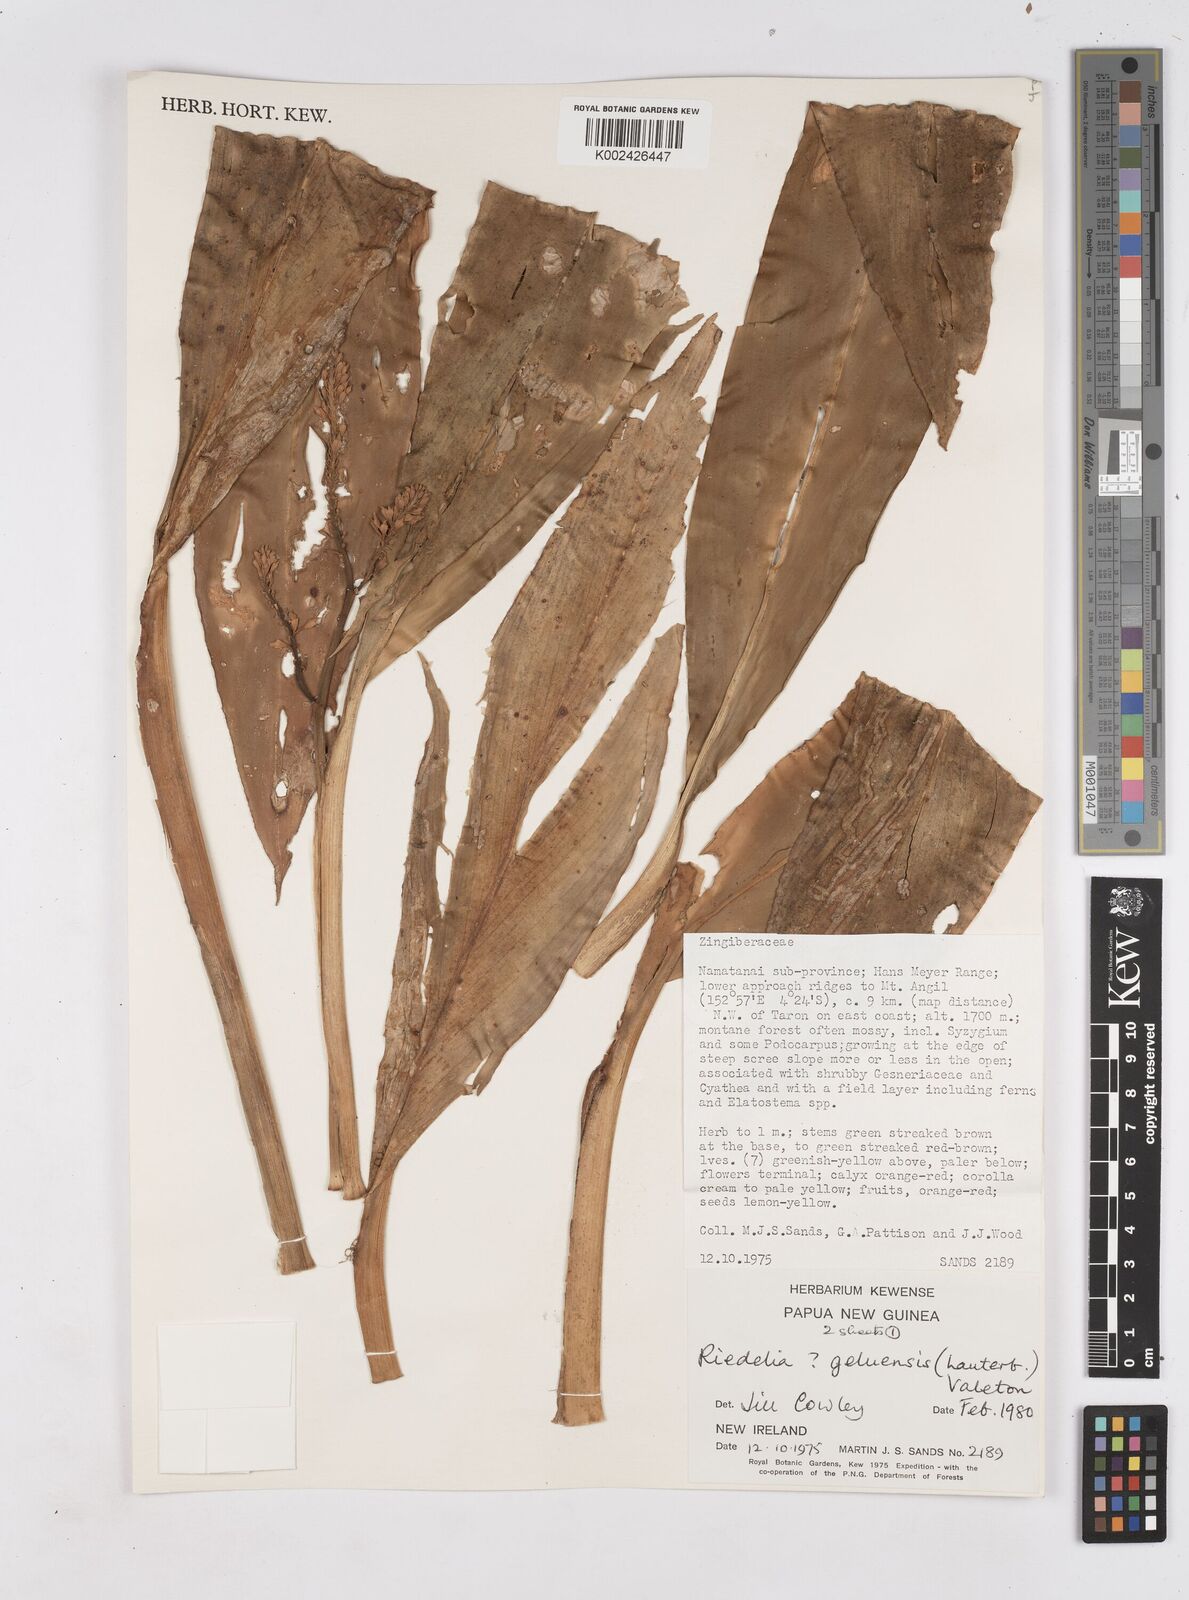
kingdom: Plantae
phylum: Tracheophyta
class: Liliopsida
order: Zingiberales
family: Zingiberaceae
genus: Riedelia
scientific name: Riedelia geluensis
